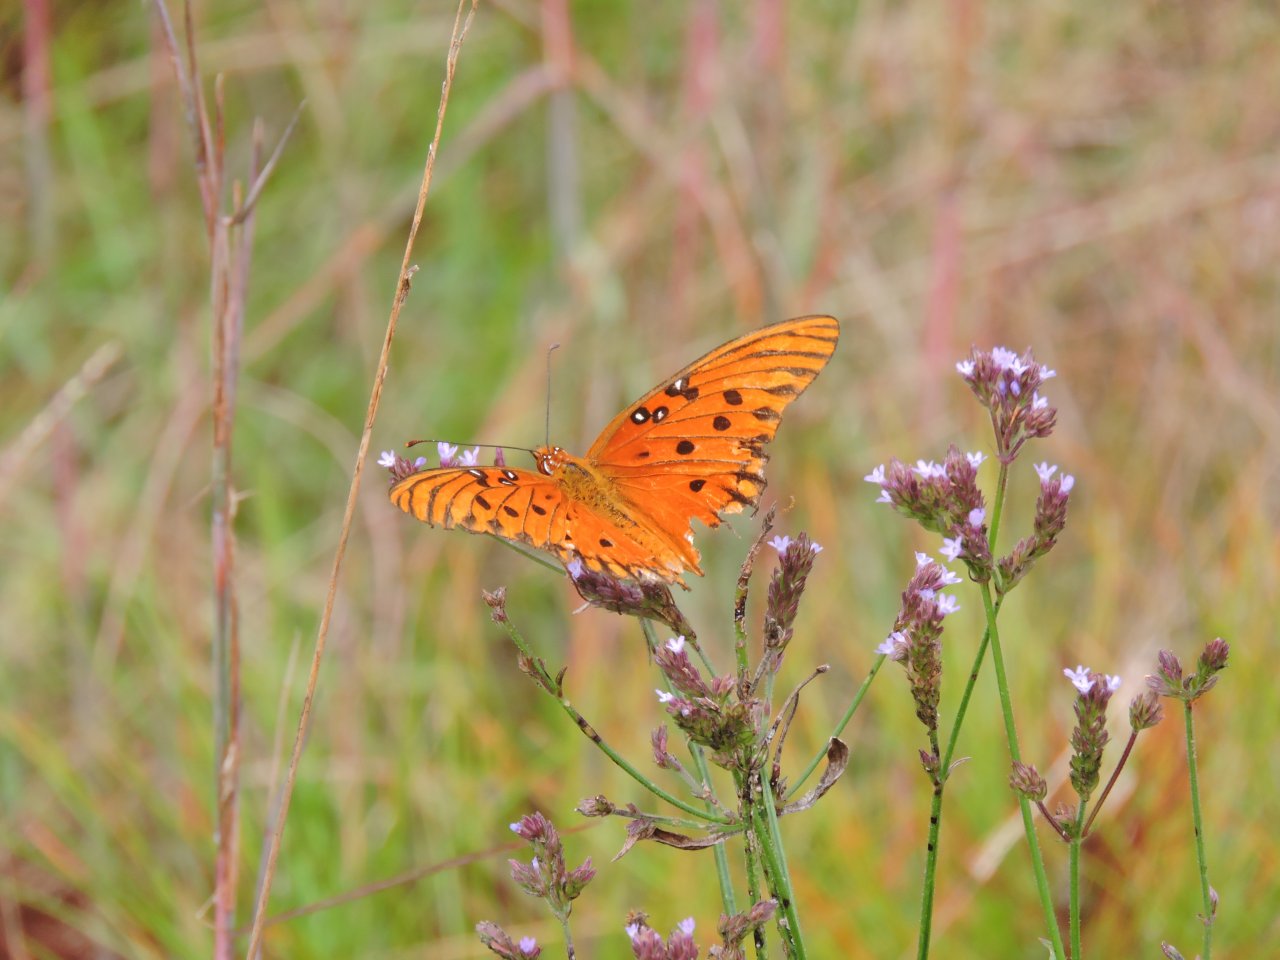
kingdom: Animalia
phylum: Arthropoda
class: Insecta
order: Lepidoptera
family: Nymphalidae
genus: Dione
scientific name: Dione vanillae
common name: Gulf Fritillary
